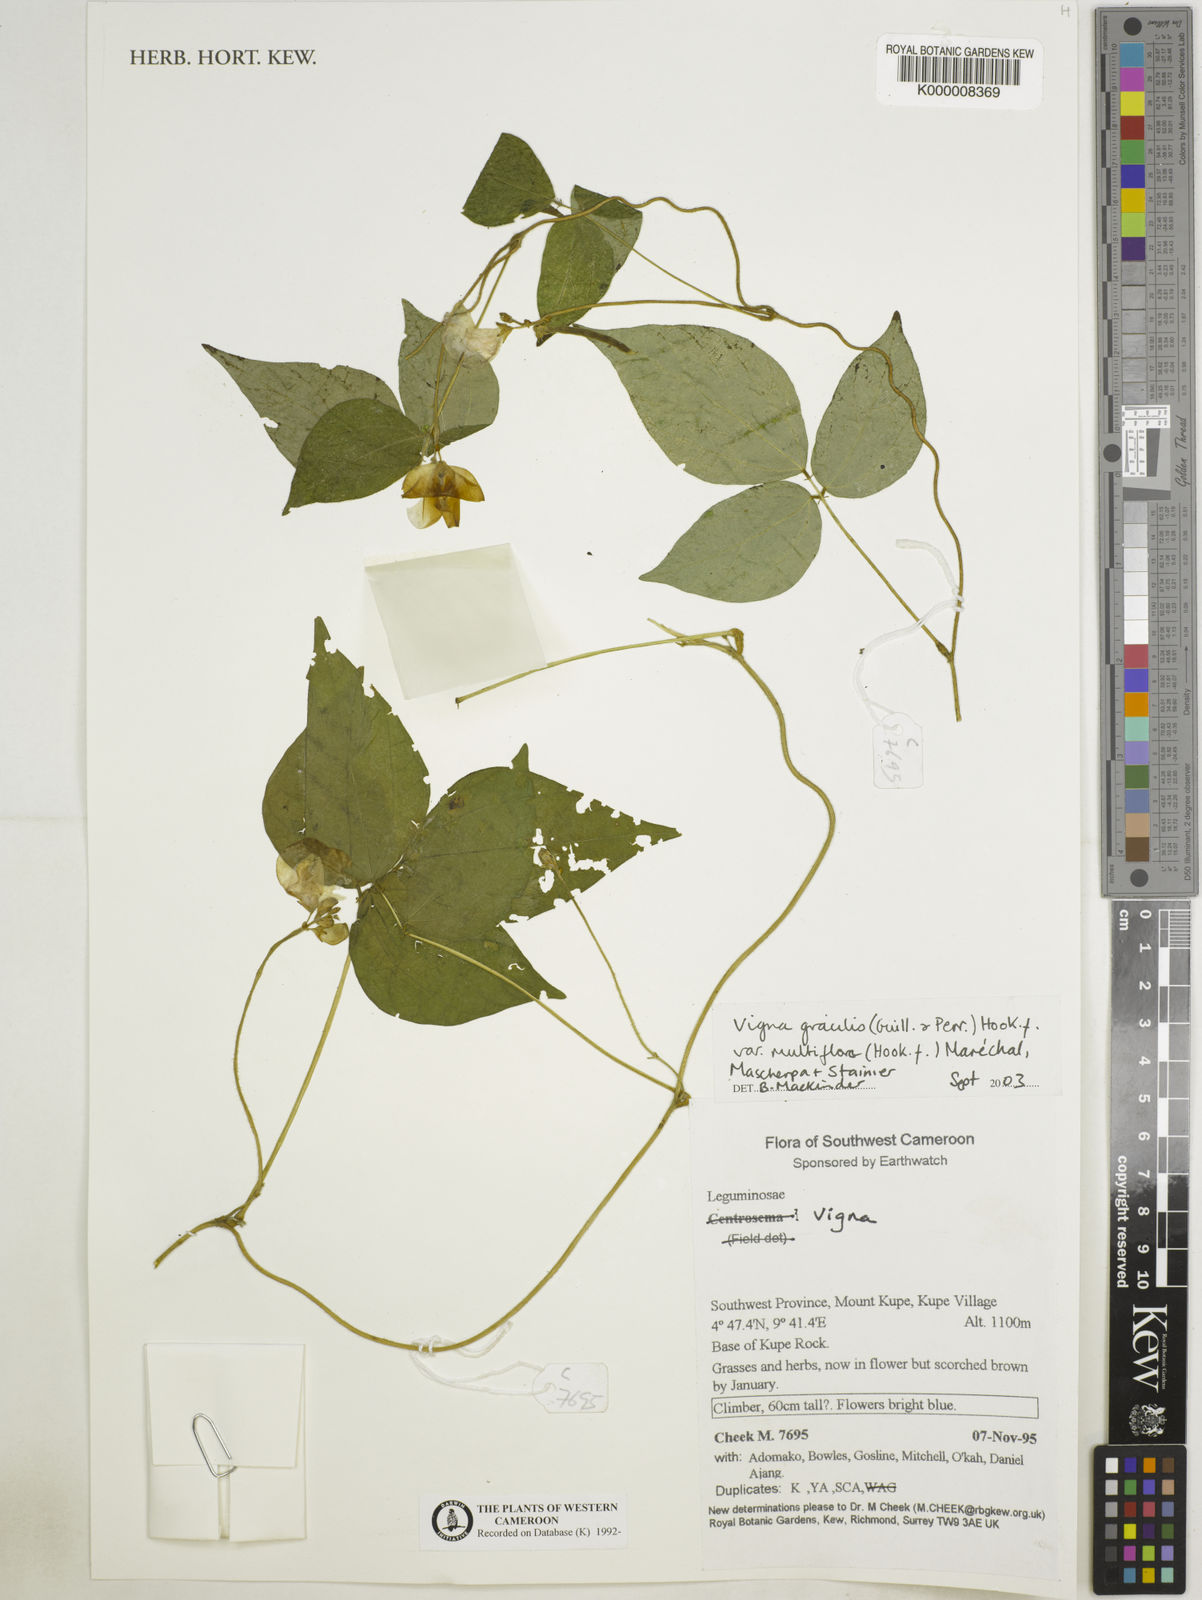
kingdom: Plantae
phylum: Tracheophyta
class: Magnoliopsida
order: Fabales
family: Fabaceae
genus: Vigna
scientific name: Vigna gracilis
